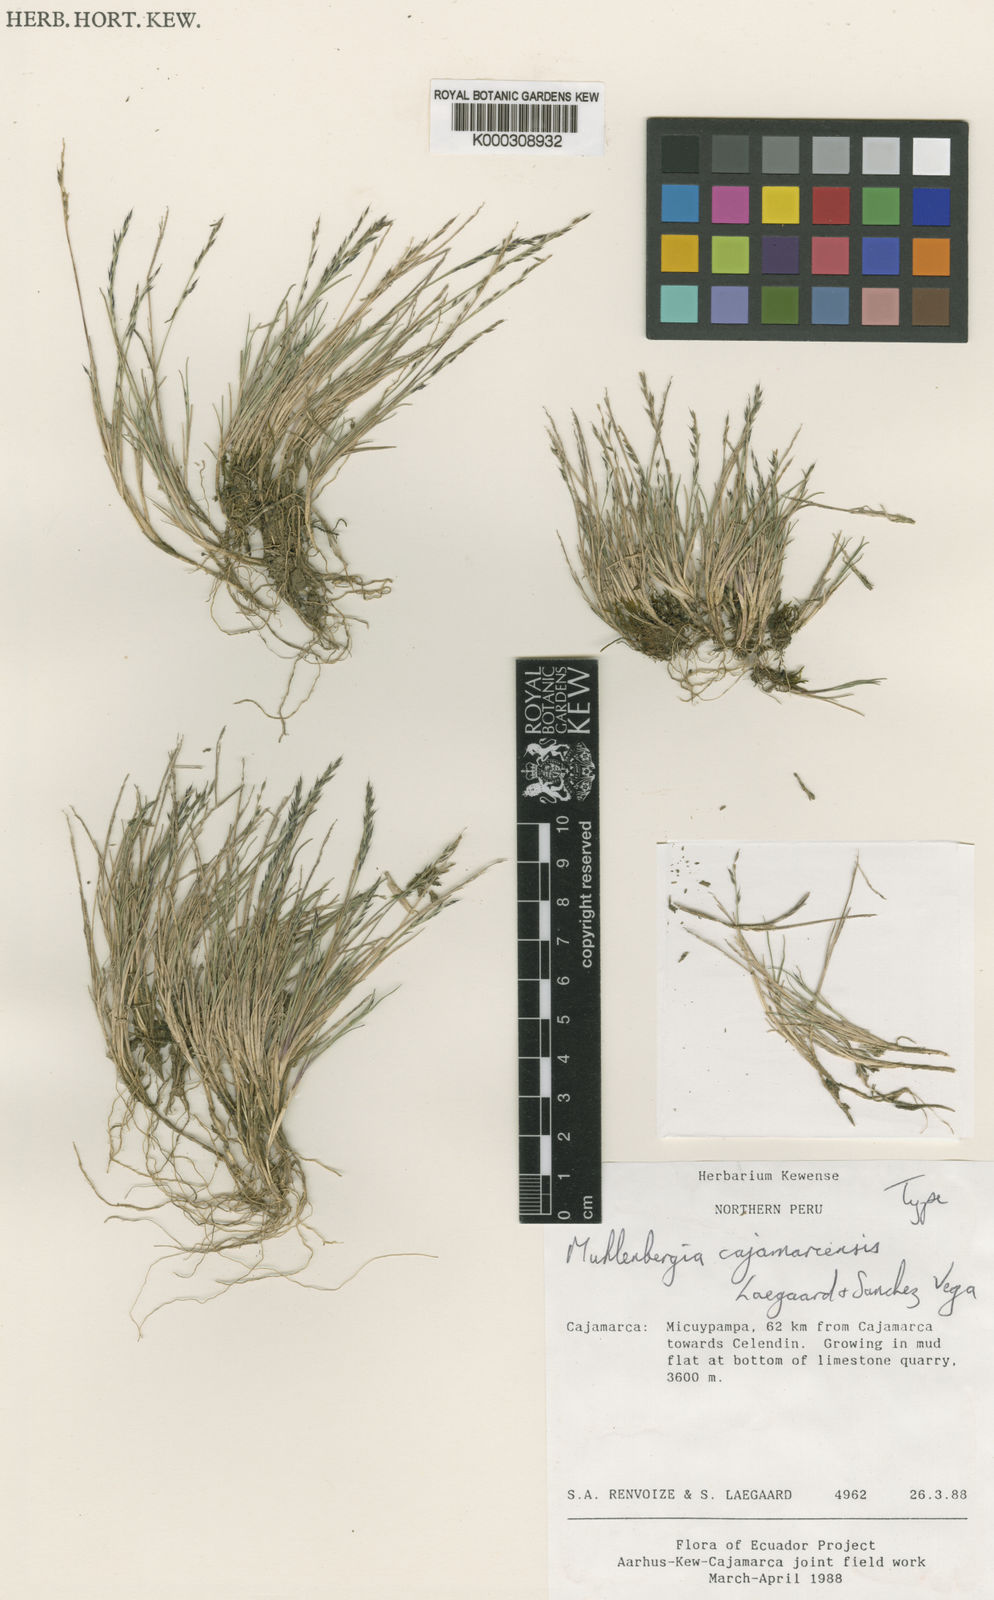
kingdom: Plantae
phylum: Tracheophyta
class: Liliopsida
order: Poales
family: Poaceae
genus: Muhlenbergia
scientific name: Muhlenbergia
